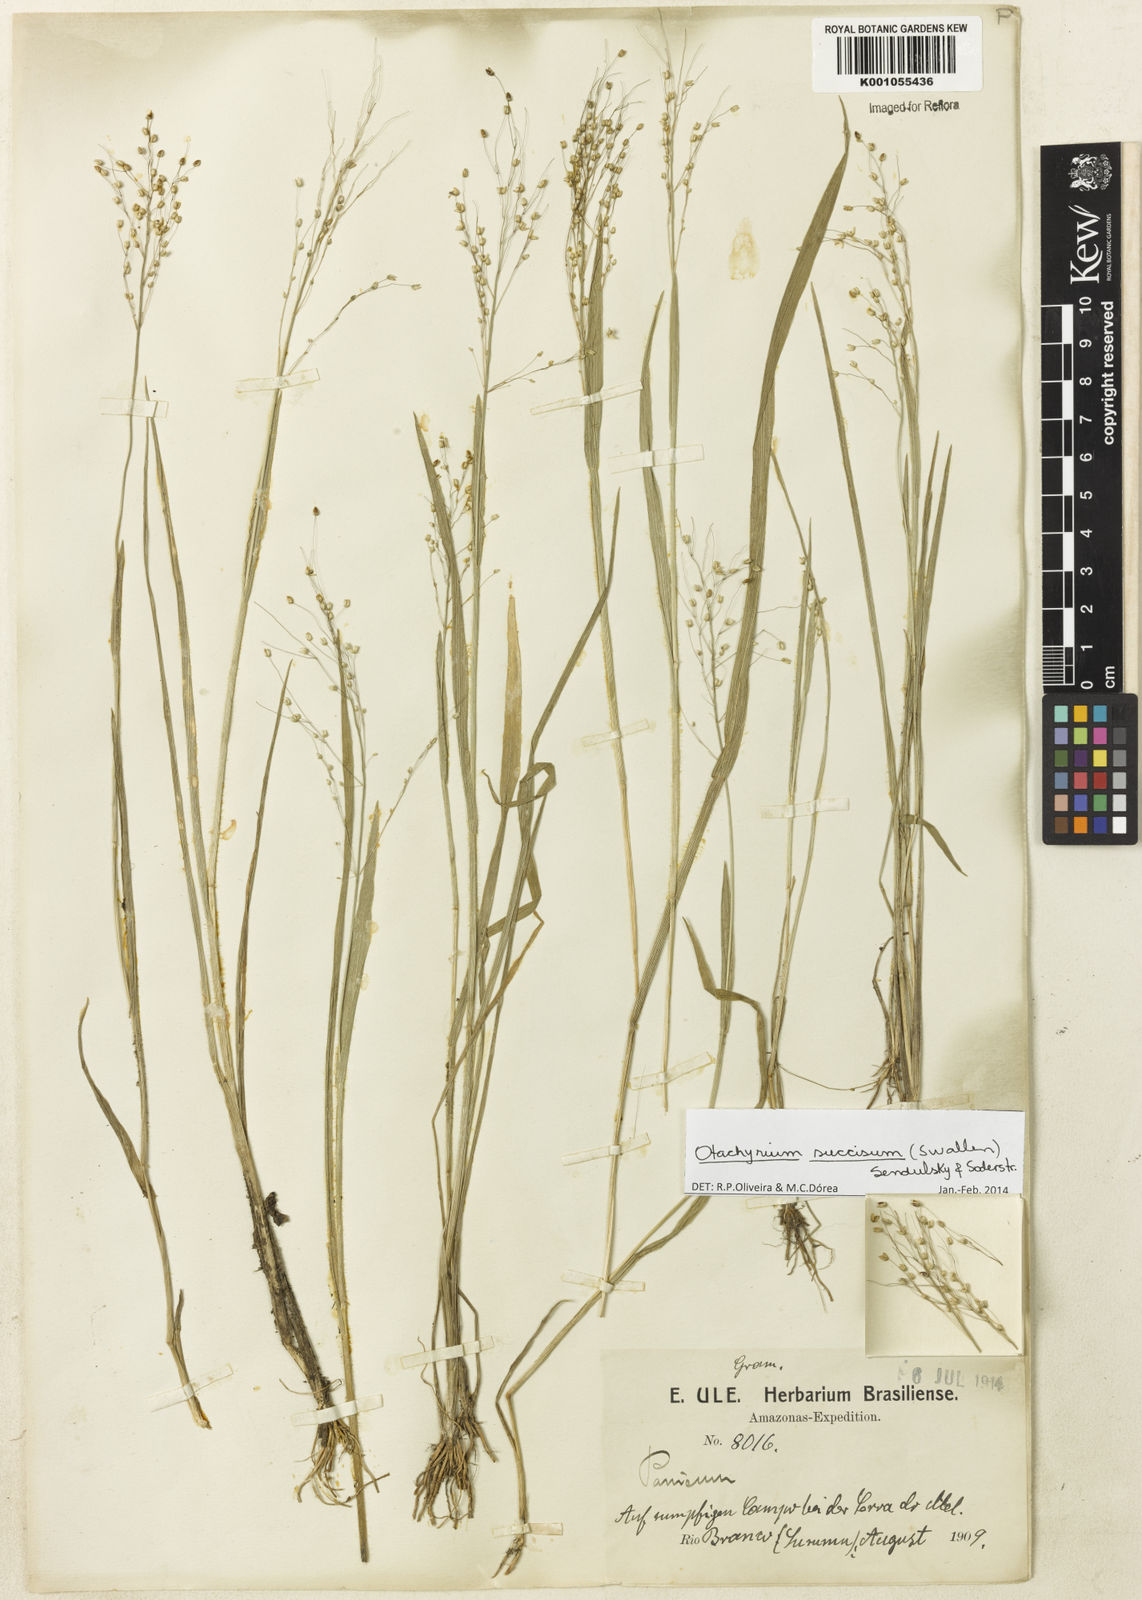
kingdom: Plantae
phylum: Tracheophyta
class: Liliopsida
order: Poales
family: Poaceae
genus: Otachyrium
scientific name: Otachyrium inaequale
